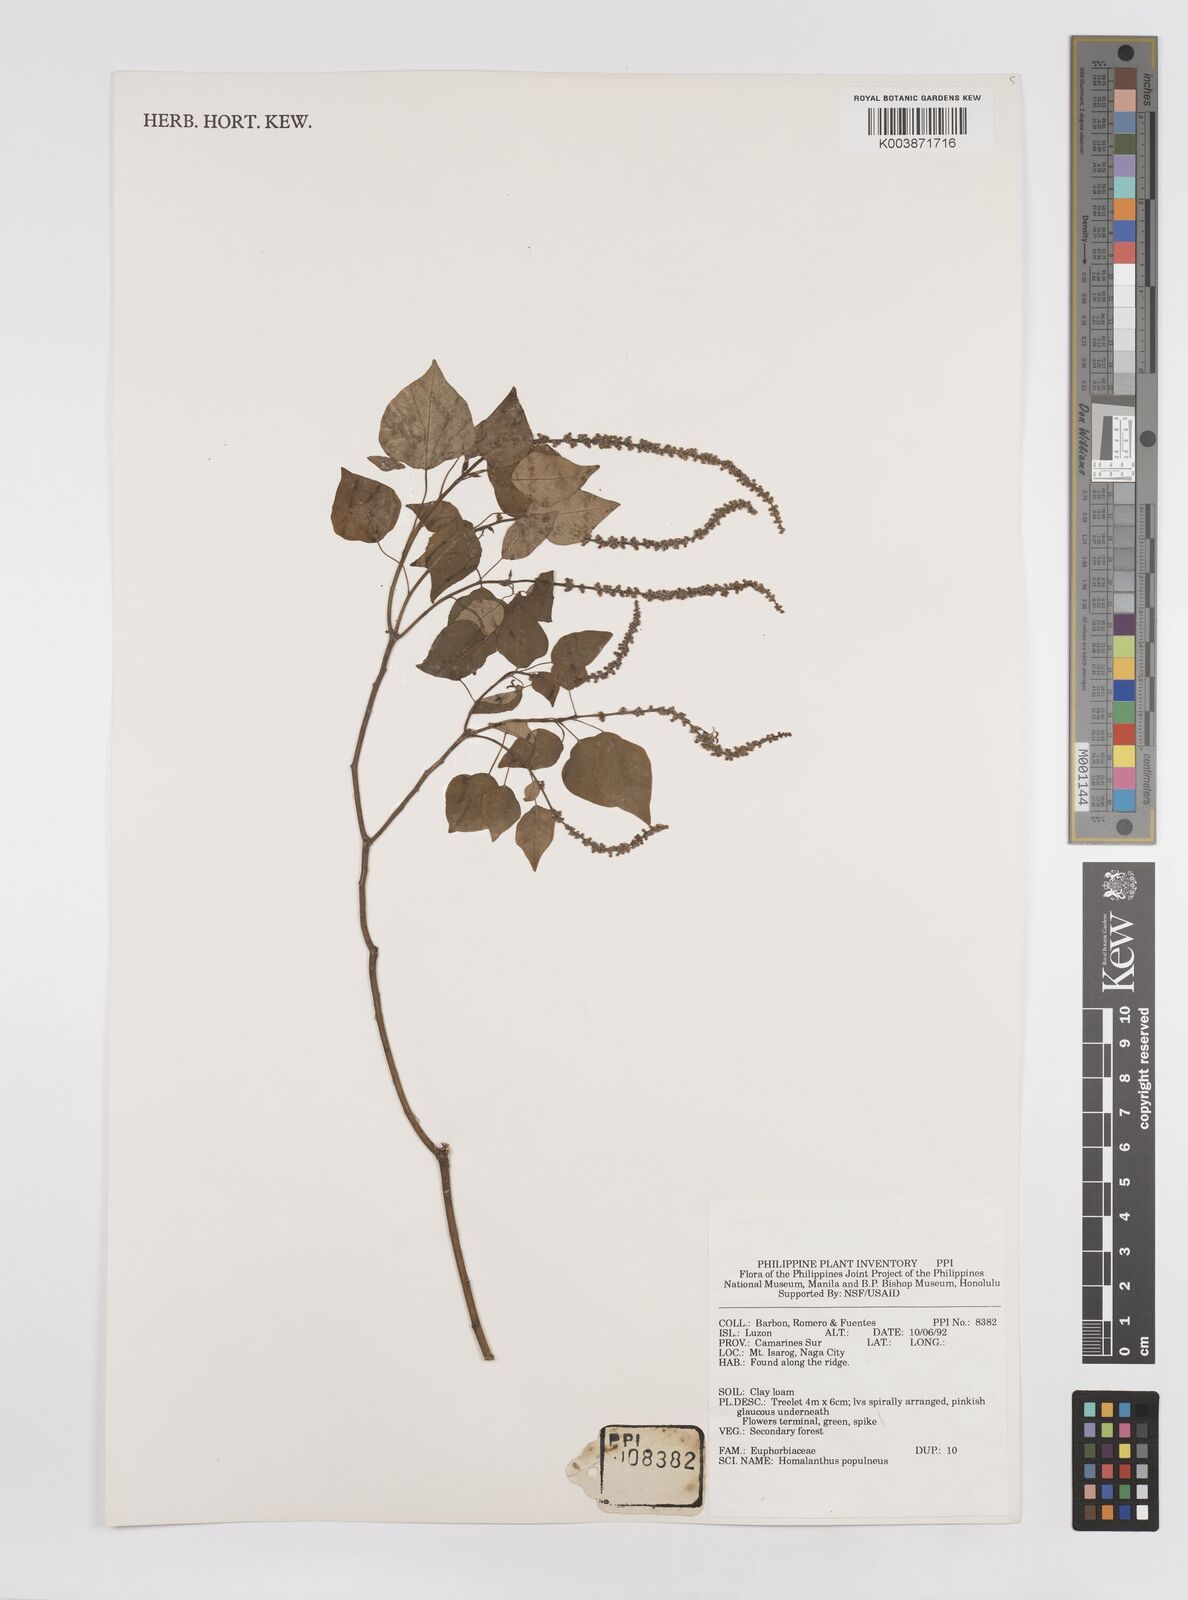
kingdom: Plantae
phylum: Tracheophyta
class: Magnoliopsida
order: Malpighiales
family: Euphorbiaceae
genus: Homalanthus
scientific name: Homalanthus populneus
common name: Spurge
